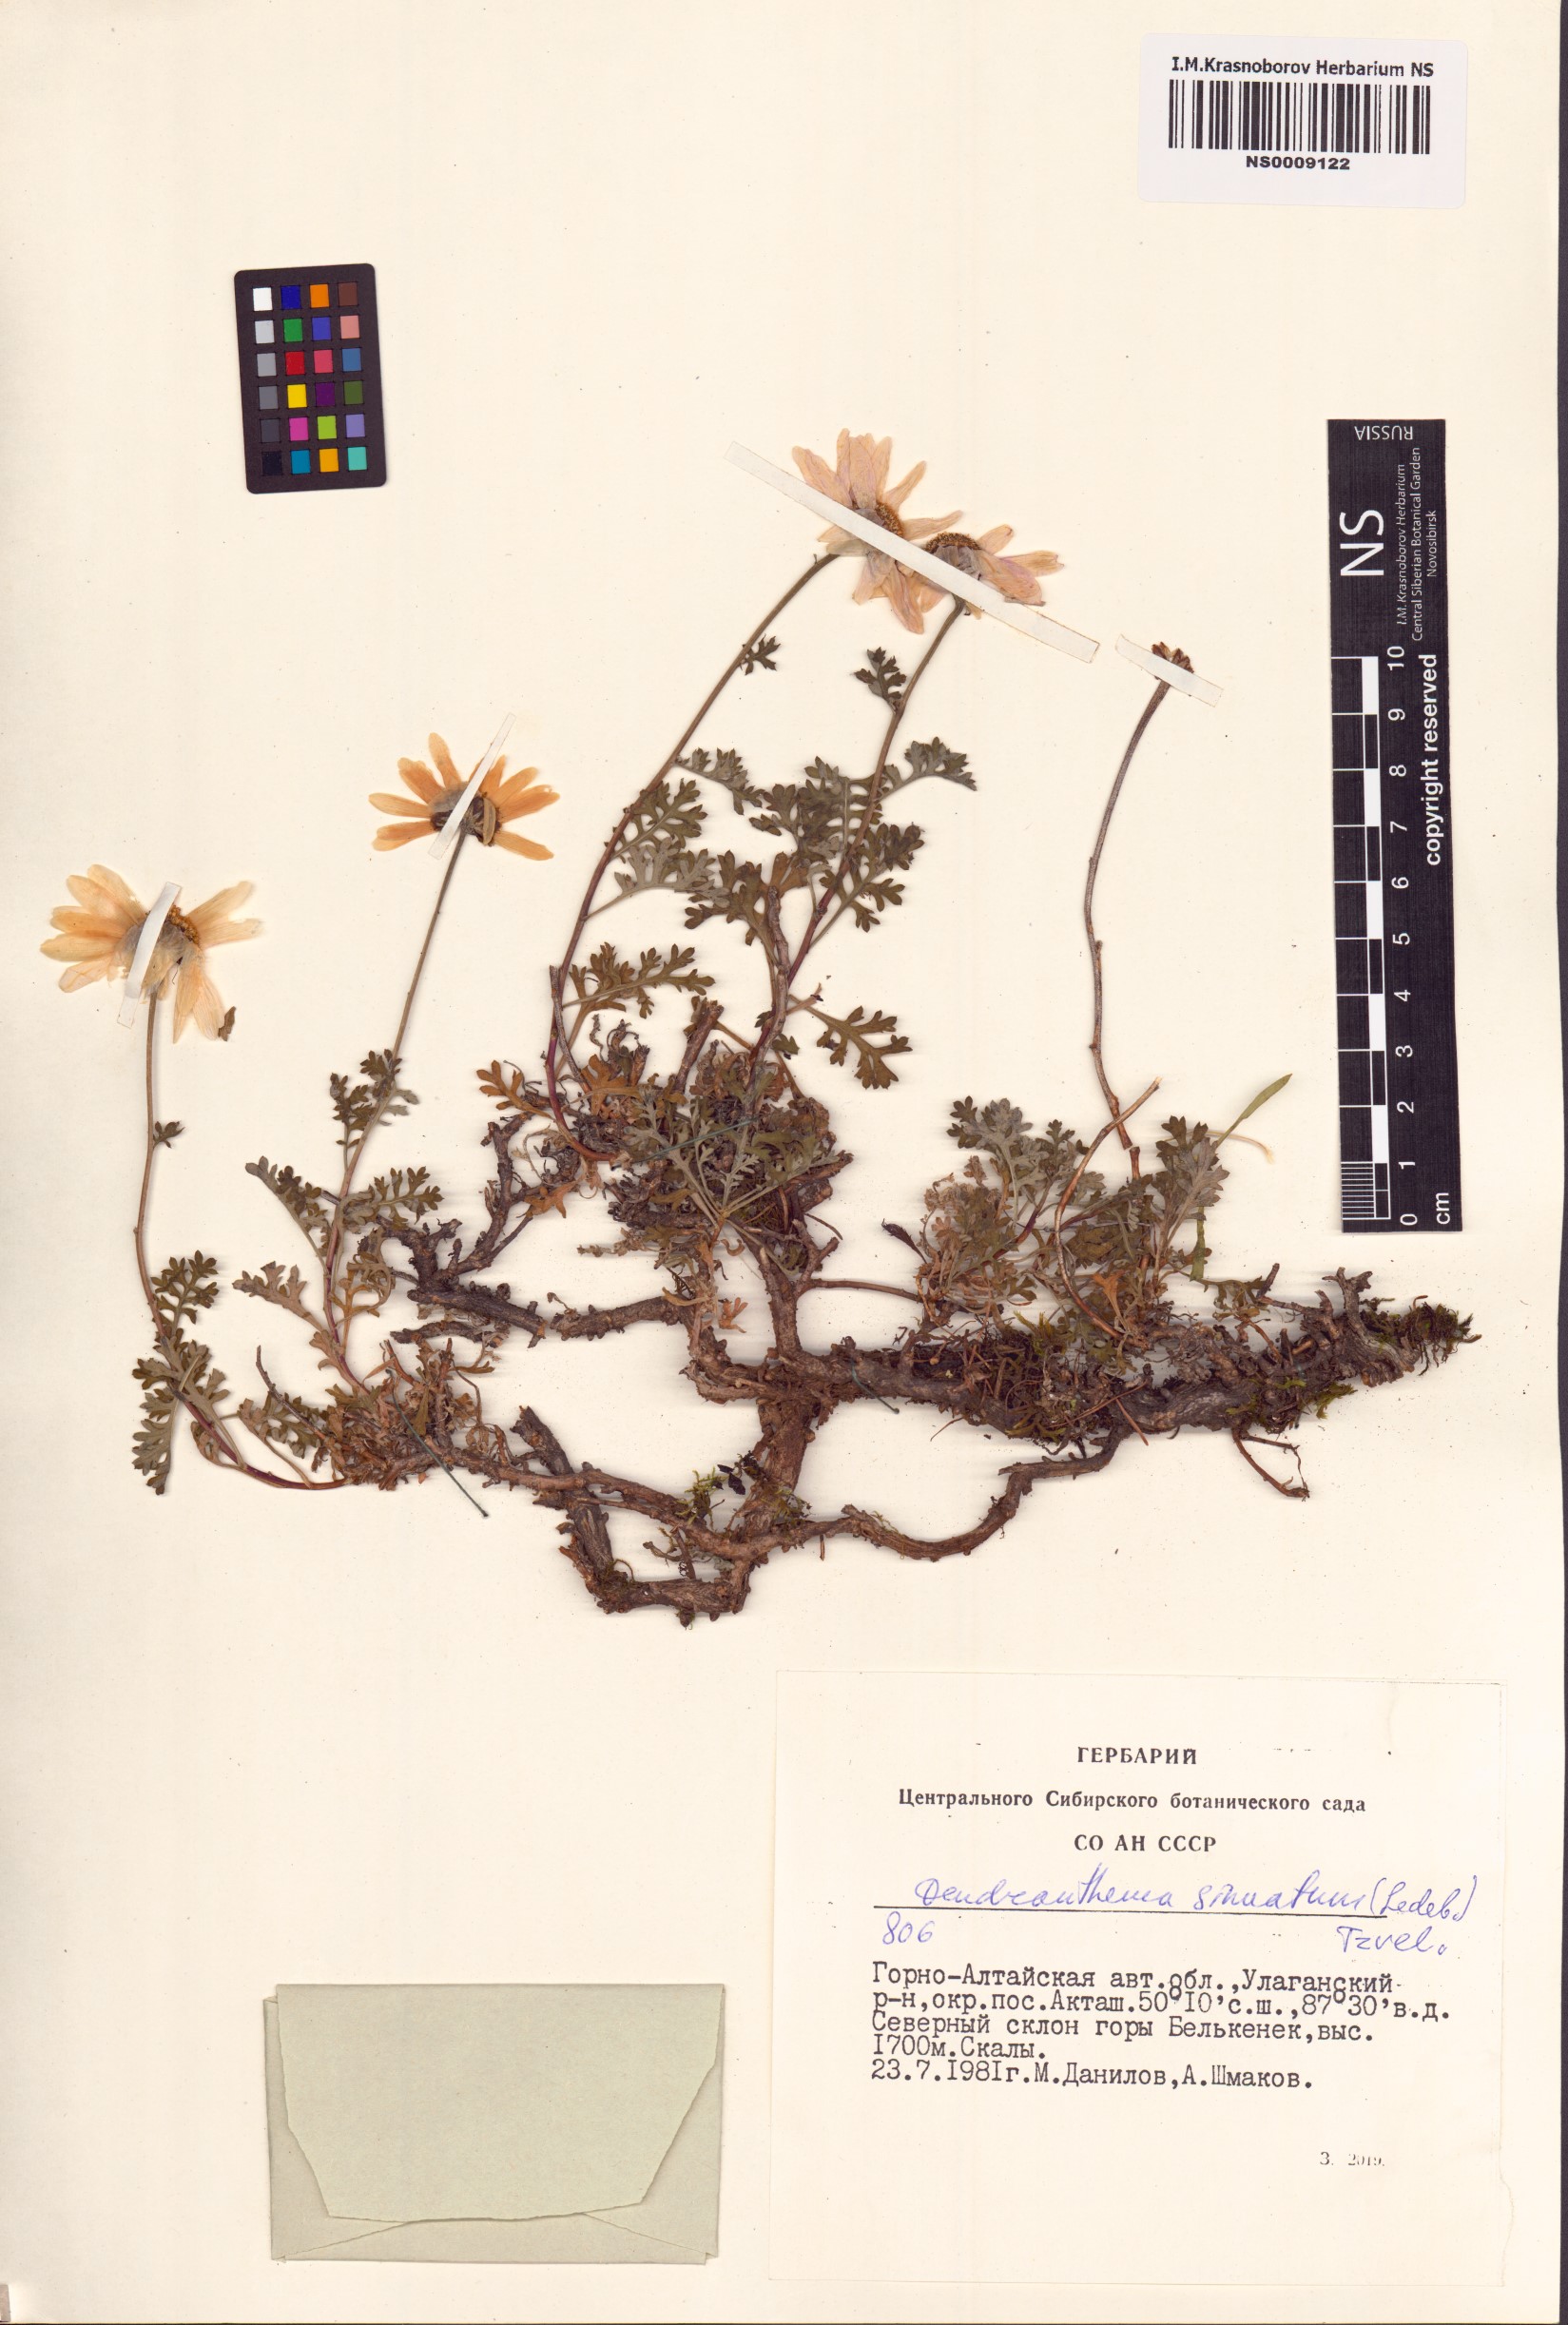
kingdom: Plantae
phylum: Tracheophyta
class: Magnoliopsida
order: Asterales
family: Asteraceae
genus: Chrysanthemum
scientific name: Chrysanthemum sinuatum
